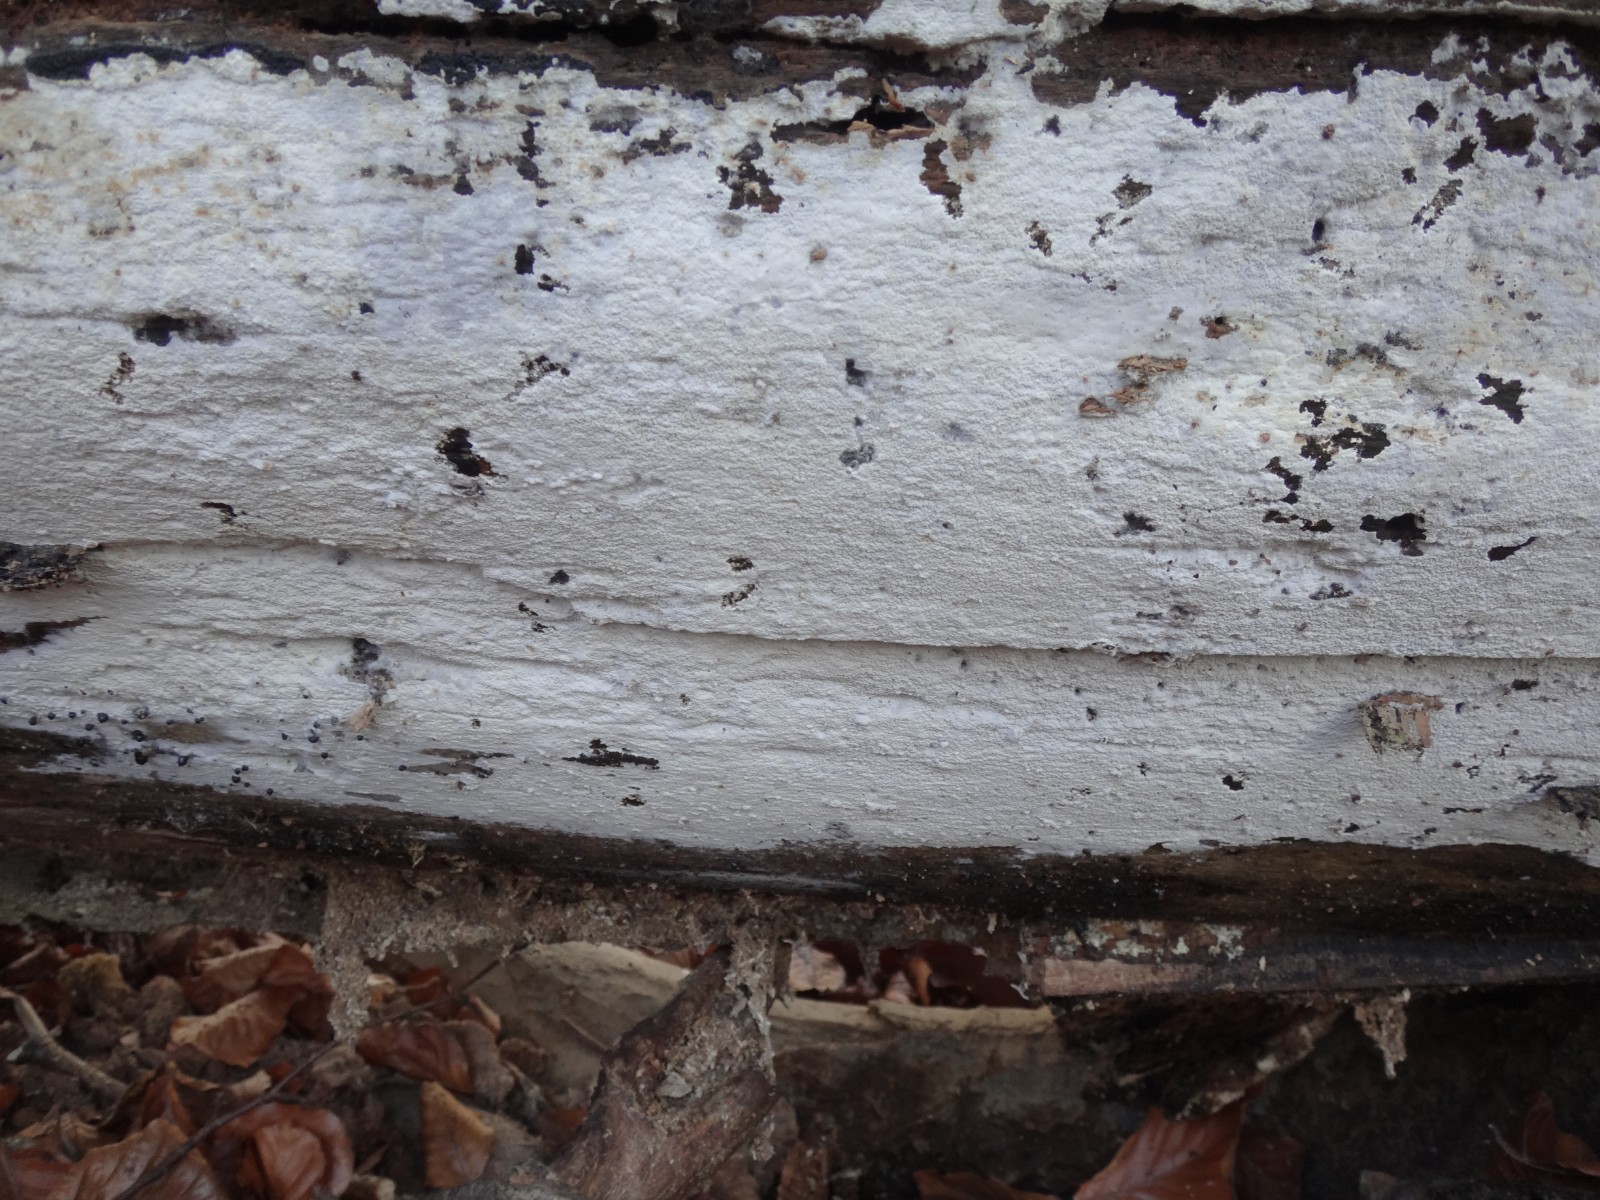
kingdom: Fungi
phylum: Basidiomycota
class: Agaricomycetes
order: Trechisporales
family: Sistotremataceae
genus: Trechispora
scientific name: Trechispora cohaerens
